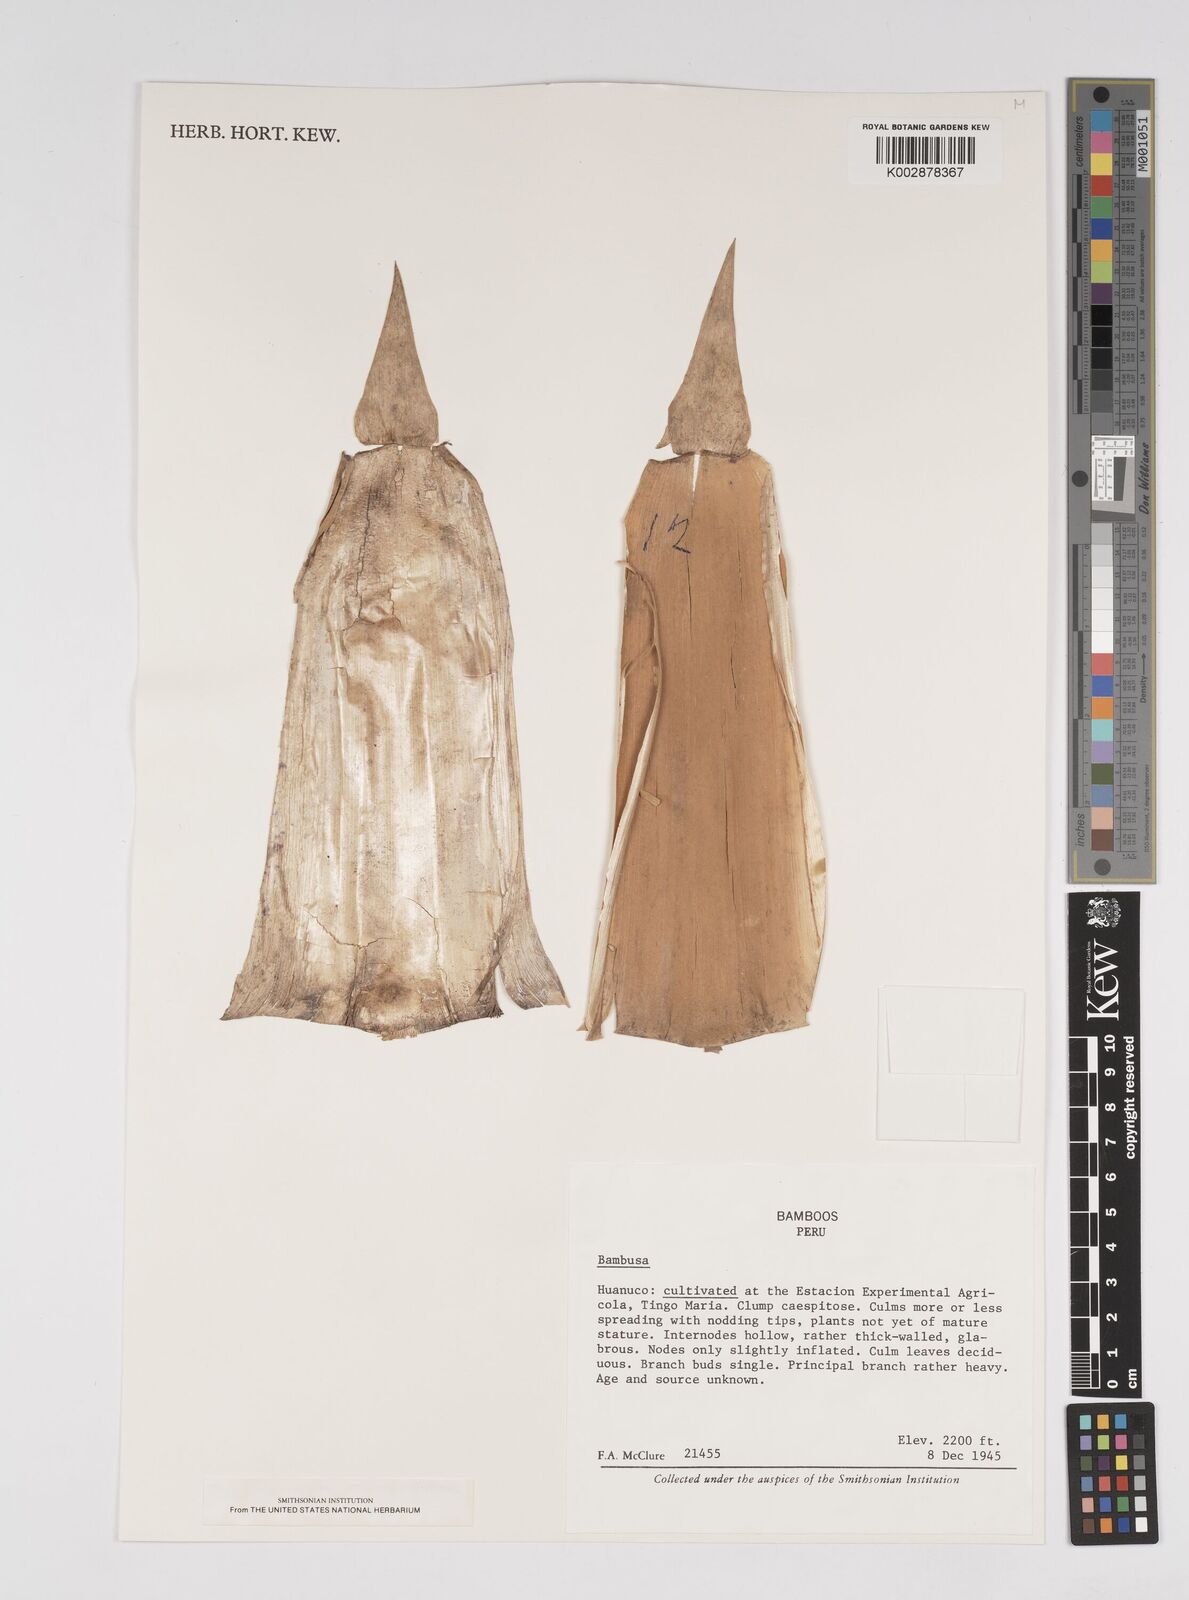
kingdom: Plantae
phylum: Tracheophyta
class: Liliopsida
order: Poales
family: Poaceae
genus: Bambusa
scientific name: Bambusa
